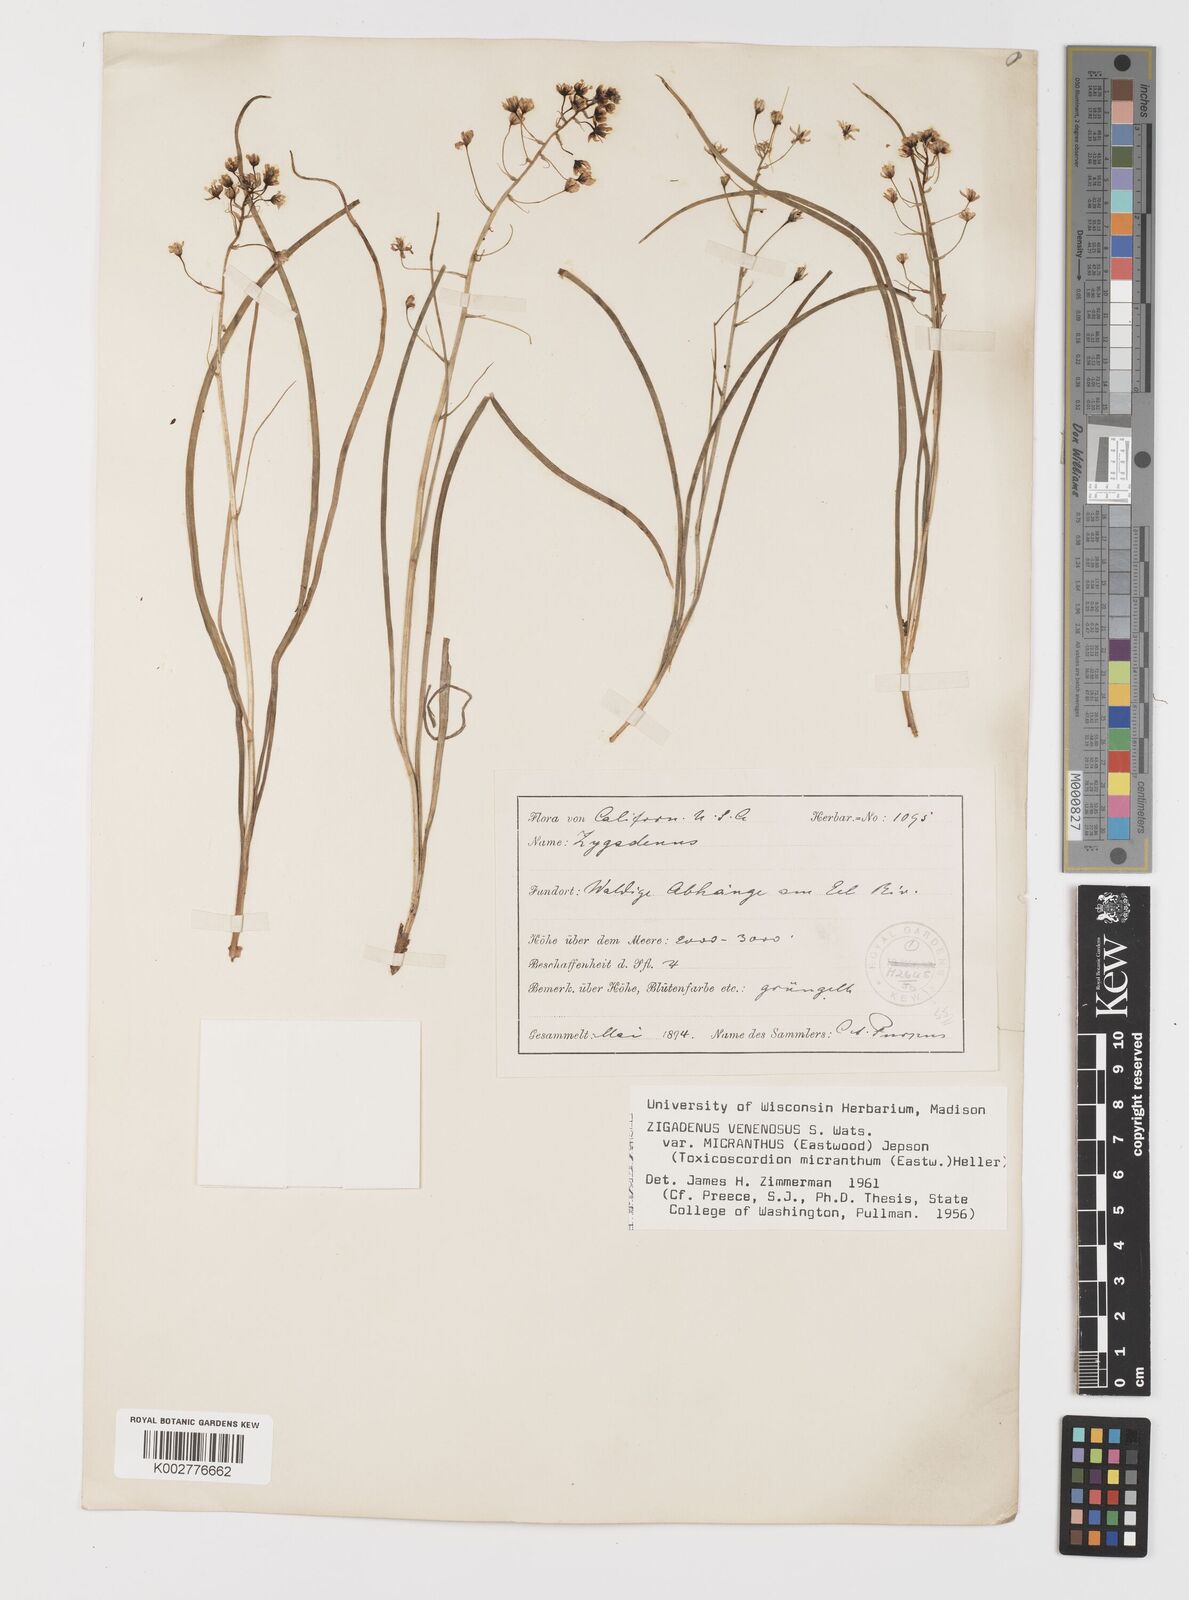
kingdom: Plantae
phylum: Tracheophyta
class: Liliopsida
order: Liliales
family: Melanthiaceae
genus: Toxicoscordion
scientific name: Toxicoscordion venenosum
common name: Meadow death camas
